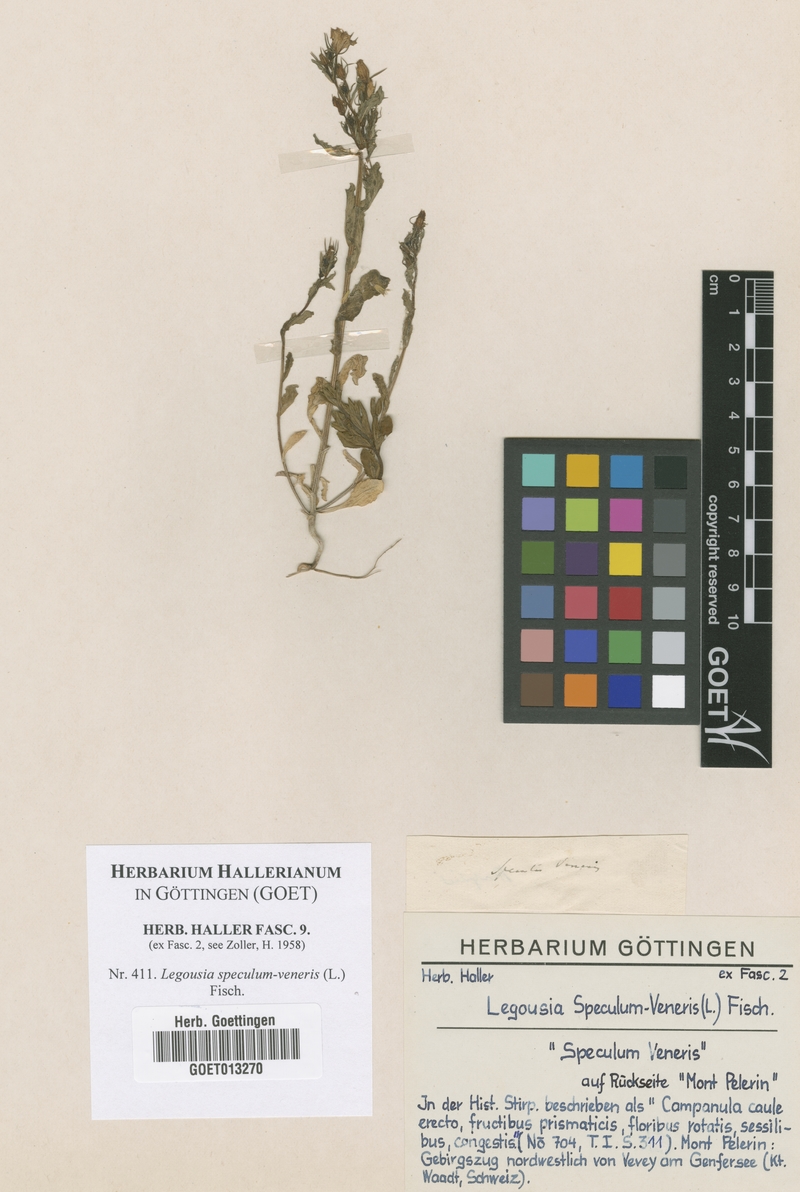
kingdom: Plantae
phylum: Tracheophyta
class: Magnoliopsida
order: Asterales
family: Campanulaceae
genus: Legousia
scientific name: Legousia speculum-veneris
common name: Large venus's-looking-glass
